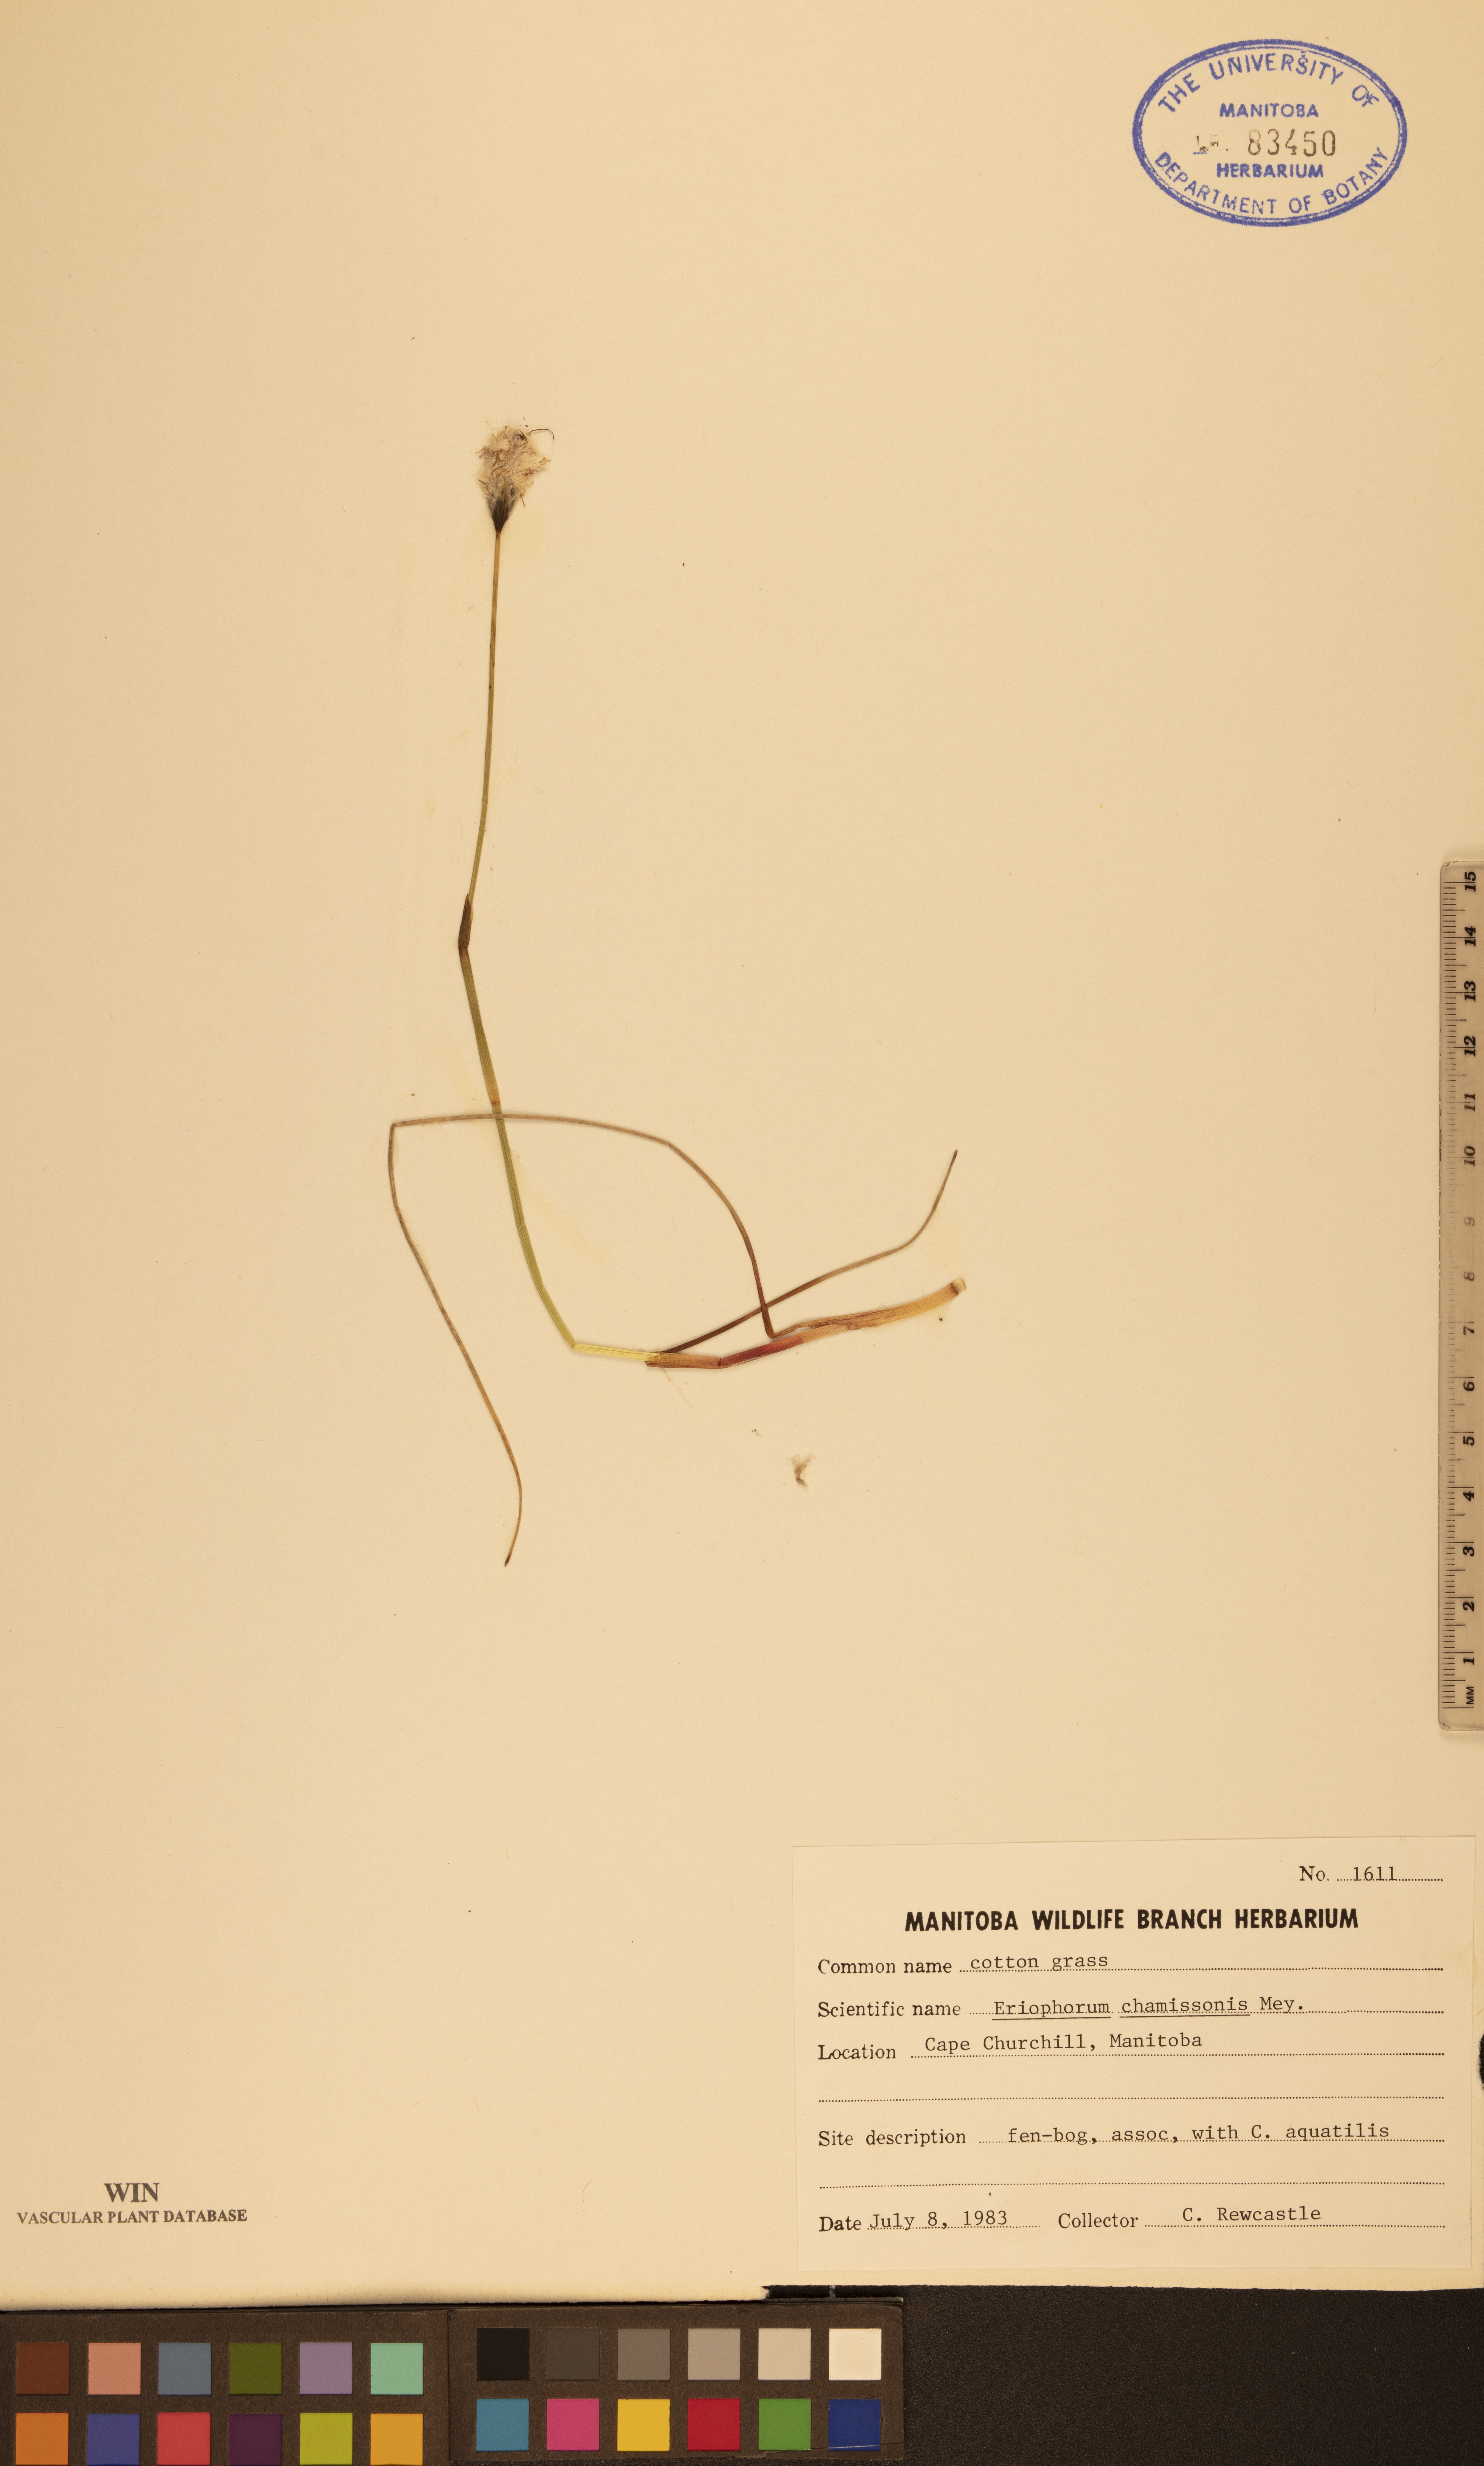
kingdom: Plantae
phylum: Tracheophyta
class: Liliopsida
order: Poales
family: Cyperaceae
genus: Eriophorum
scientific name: Eriophorum chamissonis
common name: Chamisso's cottongrass
